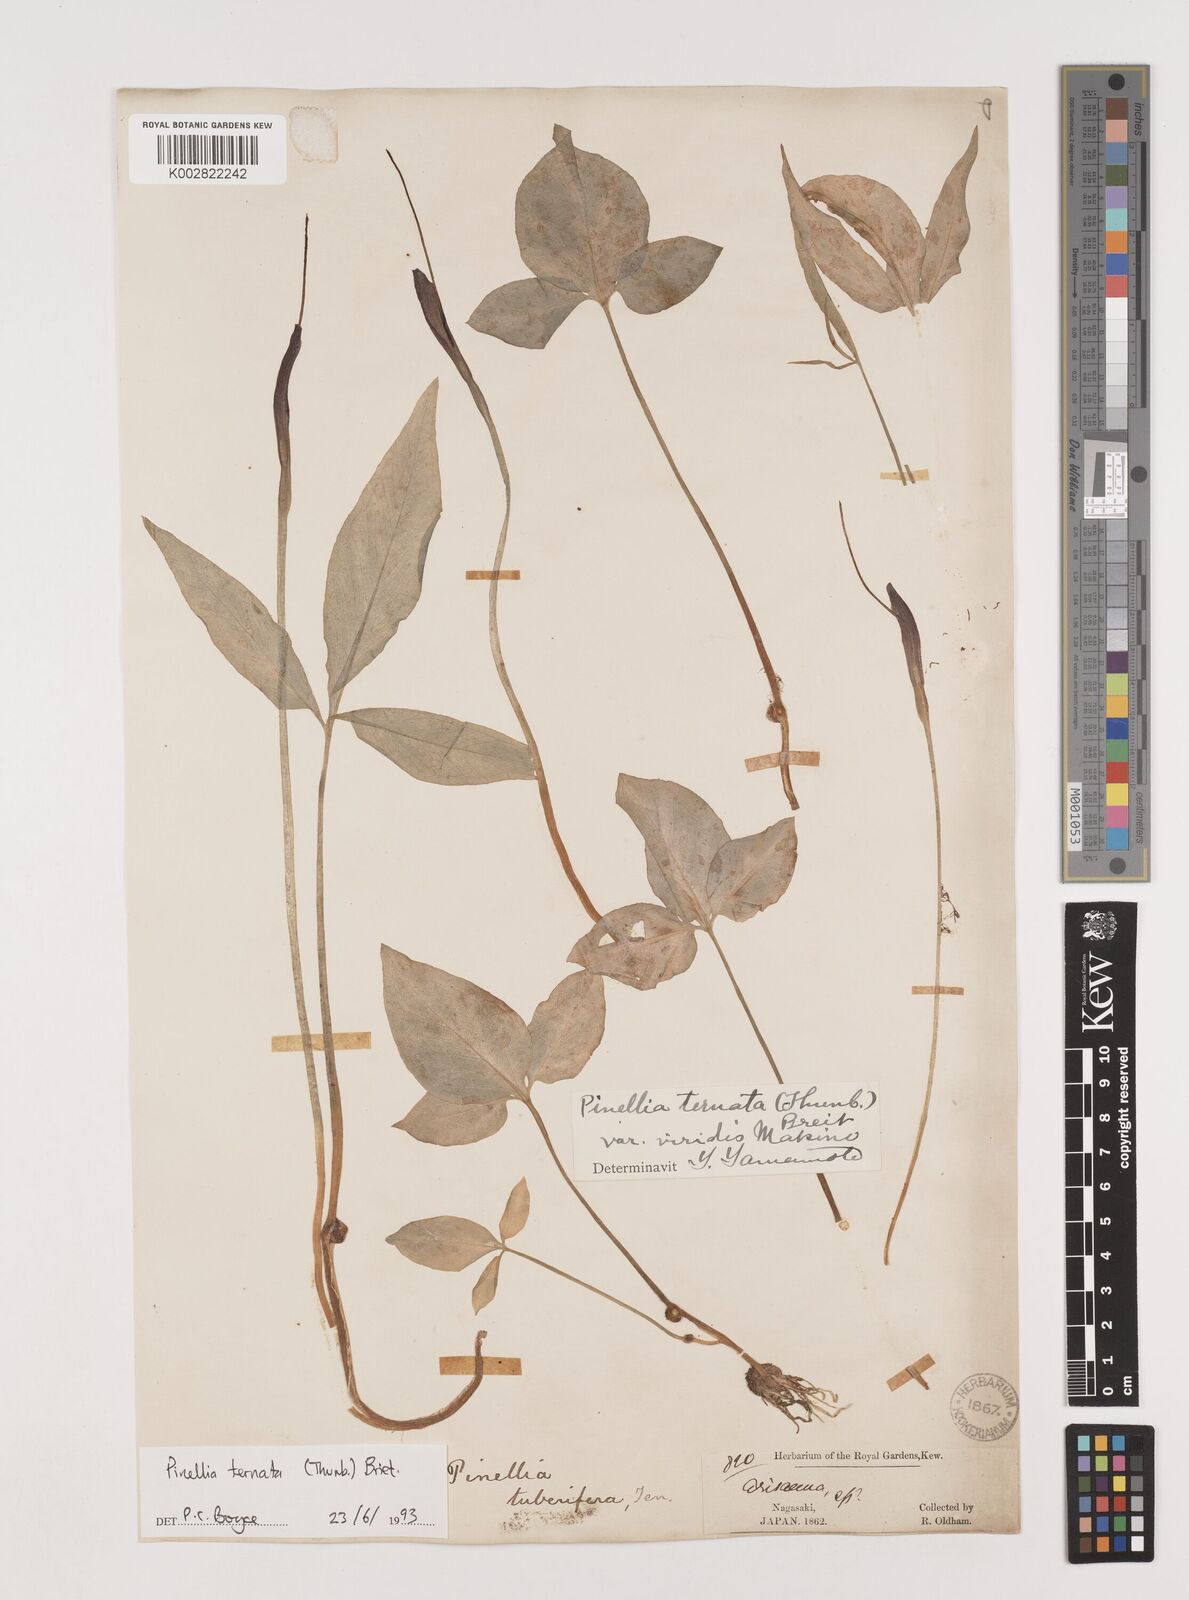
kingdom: Plantae
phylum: Tracheophyta
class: Liliopsida
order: Alismatales
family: Araceae
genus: Pinellia
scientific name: Pinellia ternata
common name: Pinellia
